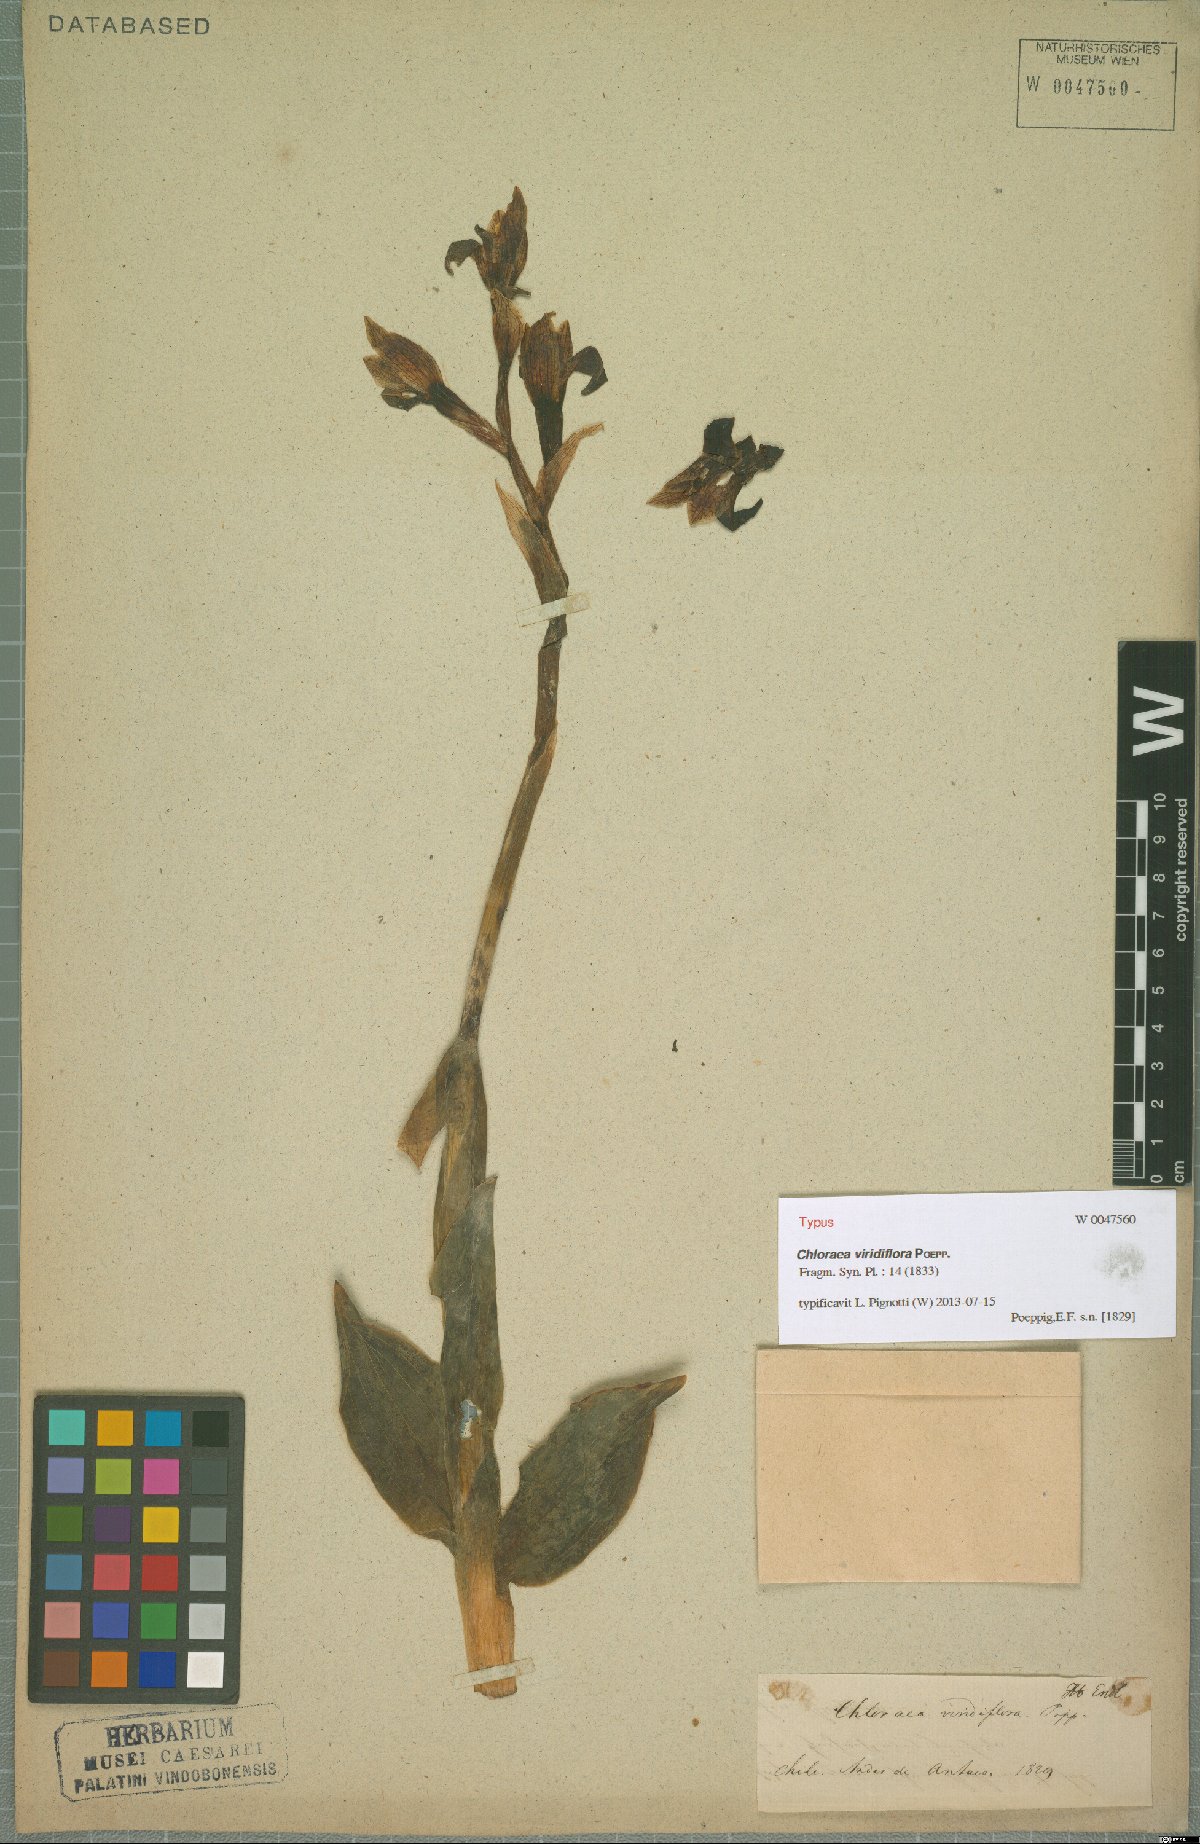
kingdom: Plantae
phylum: Tracheophyta
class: Liliopsida
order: Asparagales
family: Orchidaceae
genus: Chloraea
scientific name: Chloraea viridiflora
